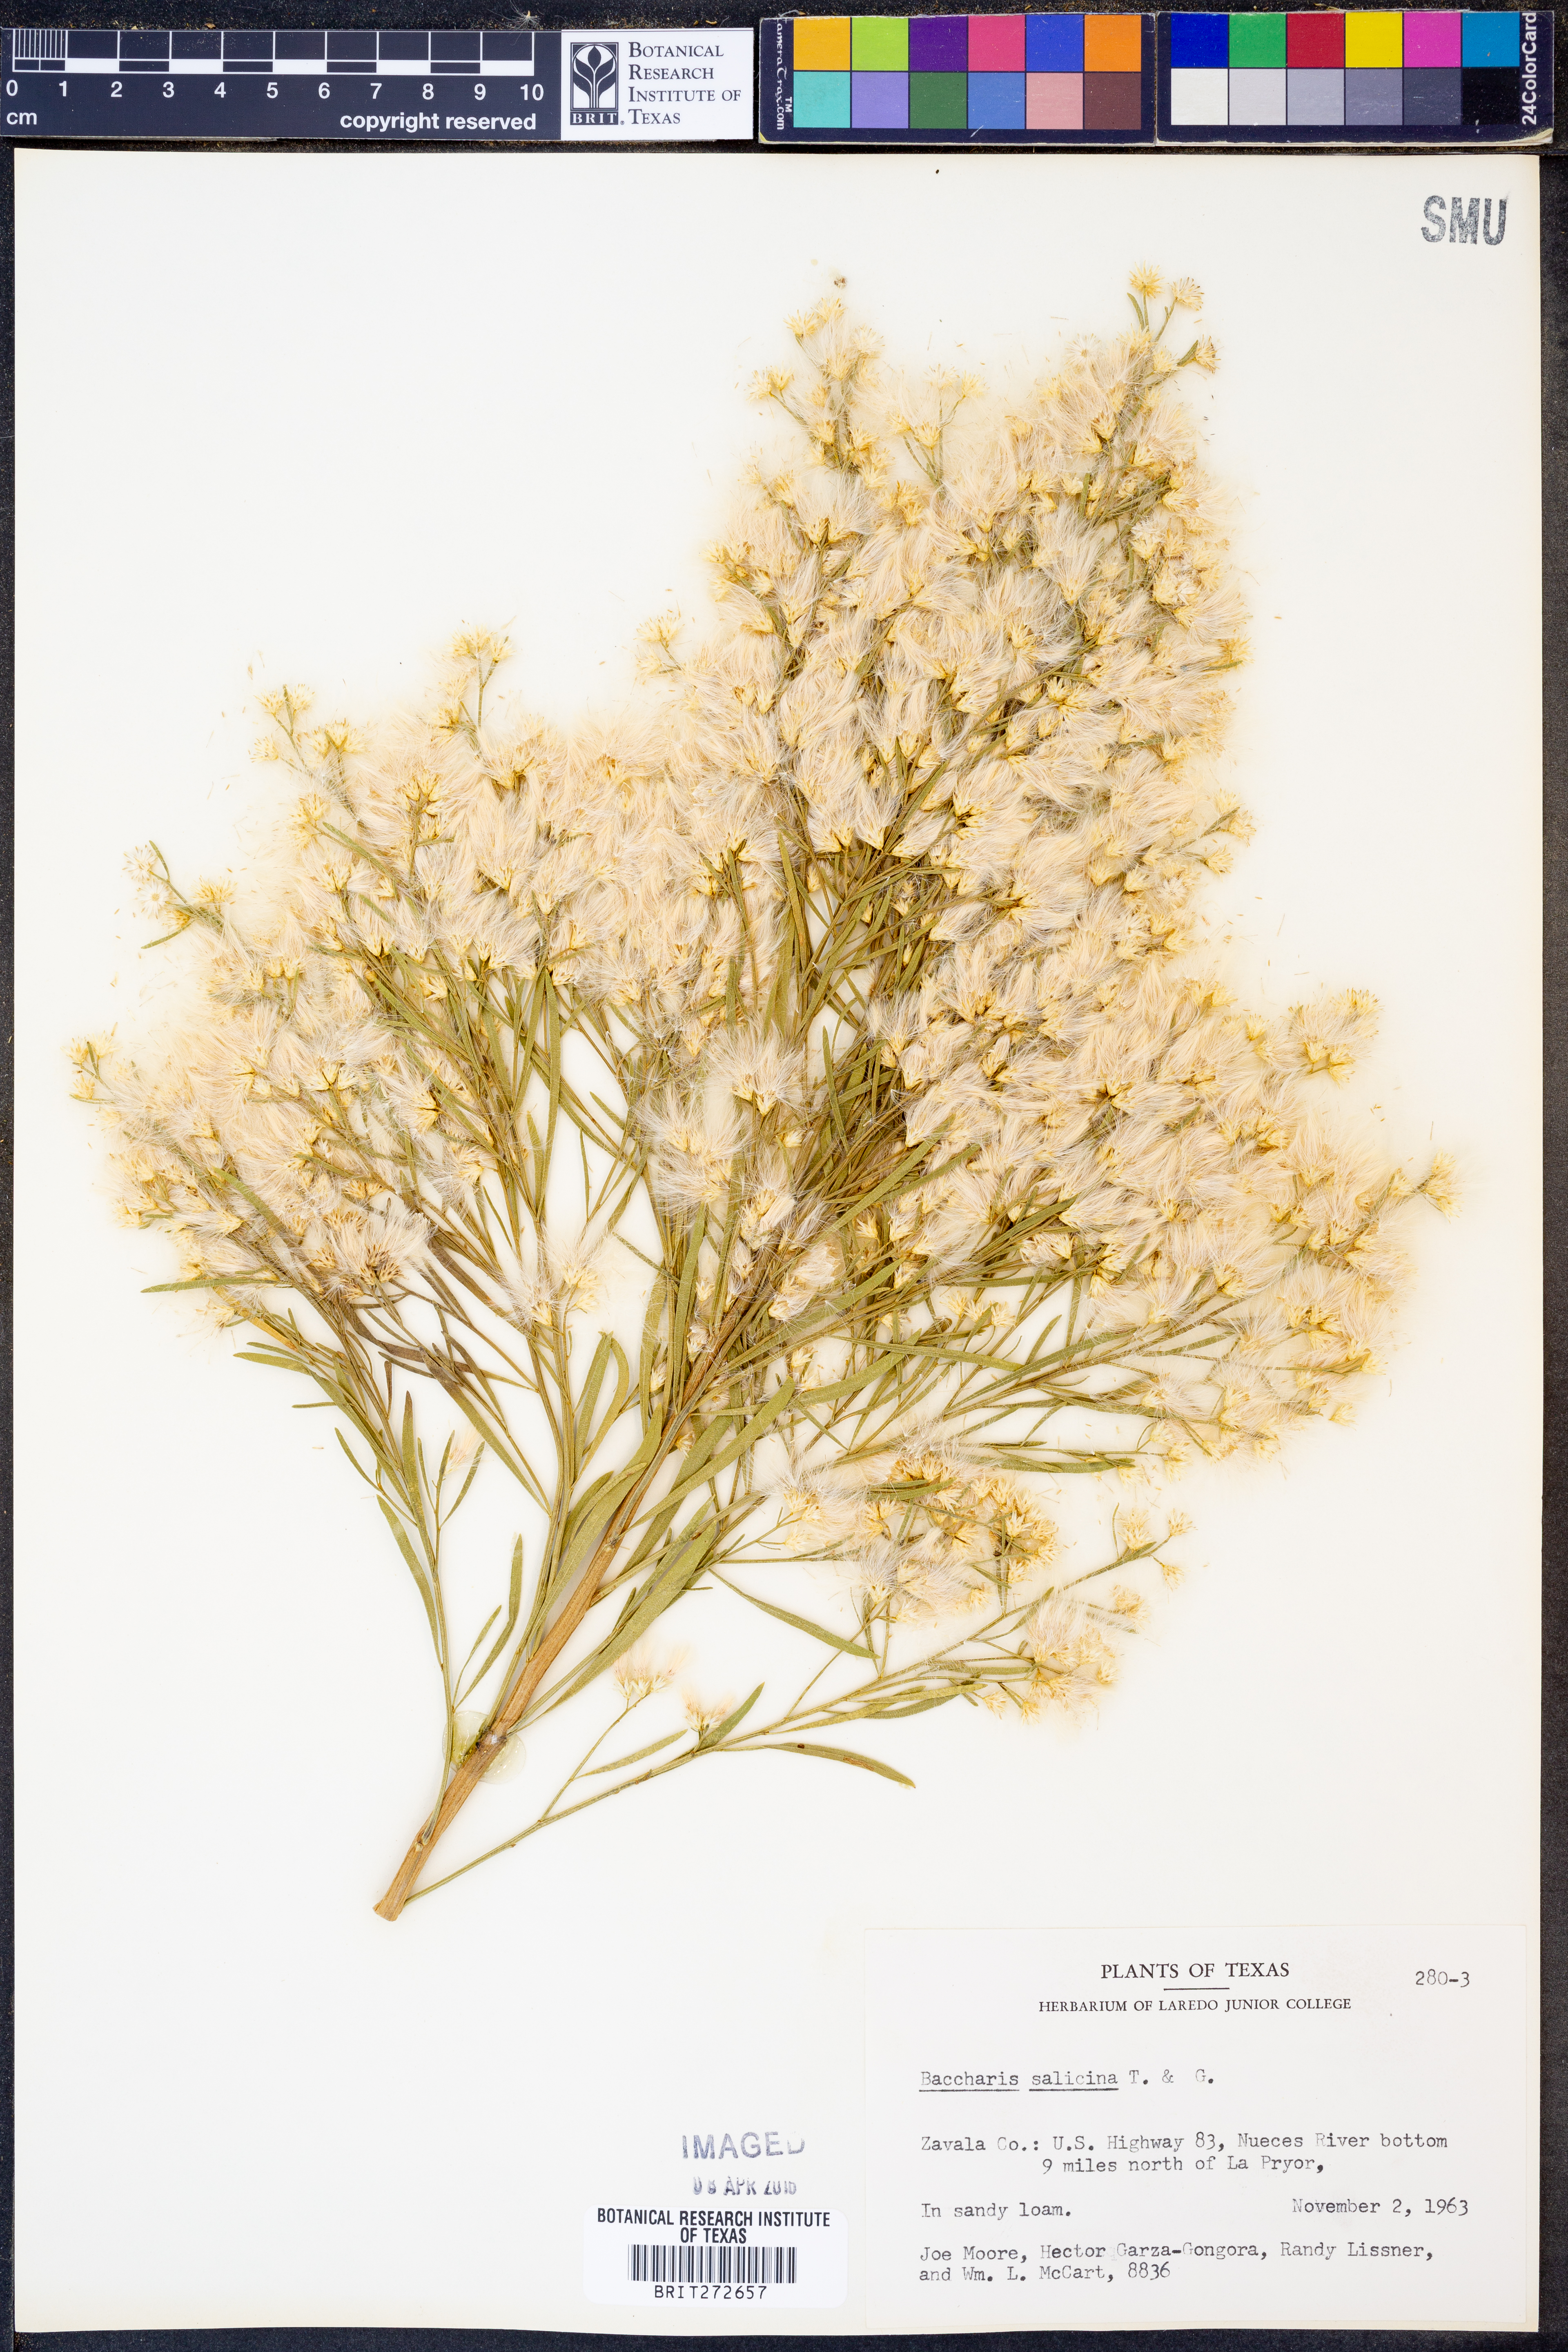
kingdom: Plantae
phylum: Tracheophyta
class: Magnoliopsida
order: Asterales
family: Asteraceae
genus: Baccharis
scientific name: Baccharis salicina
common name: Willow baccharis
